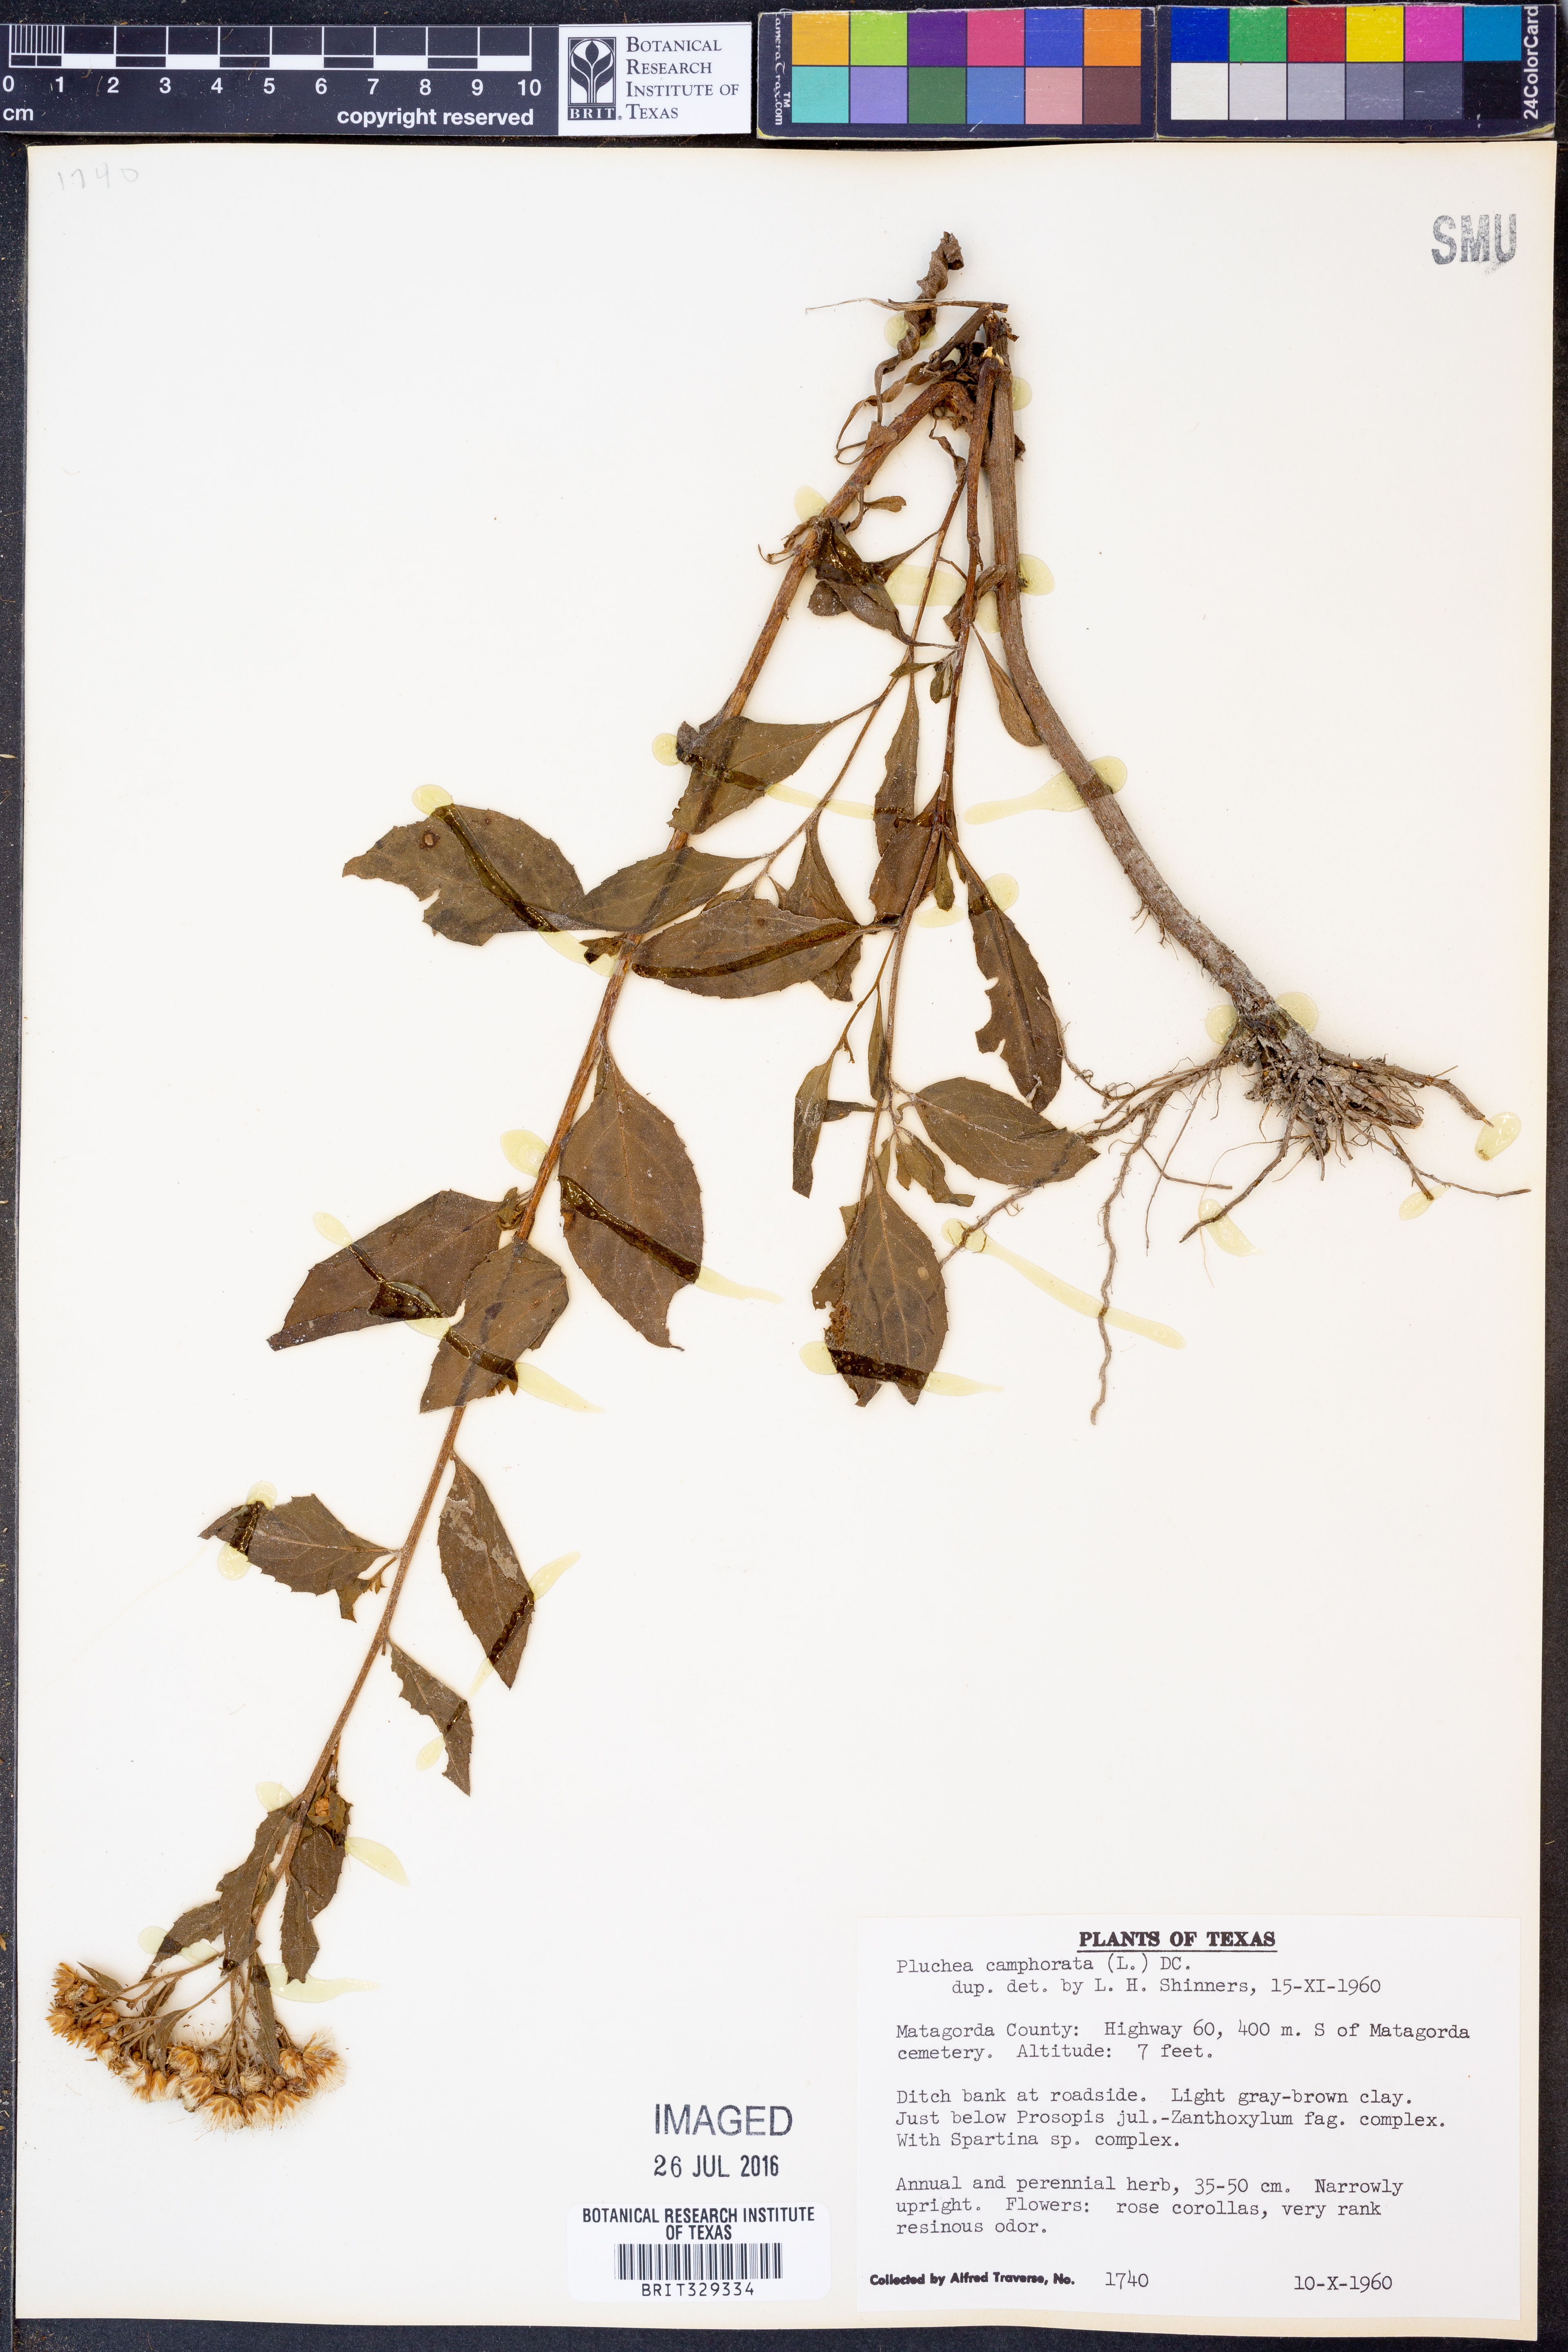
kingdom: Plantae
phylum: Tracheophyta
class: Magnoliopsida
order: Asterales
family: Asteraceae
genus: Pluchea
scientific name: Pluchea camphorata
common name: Camphor pluchea
